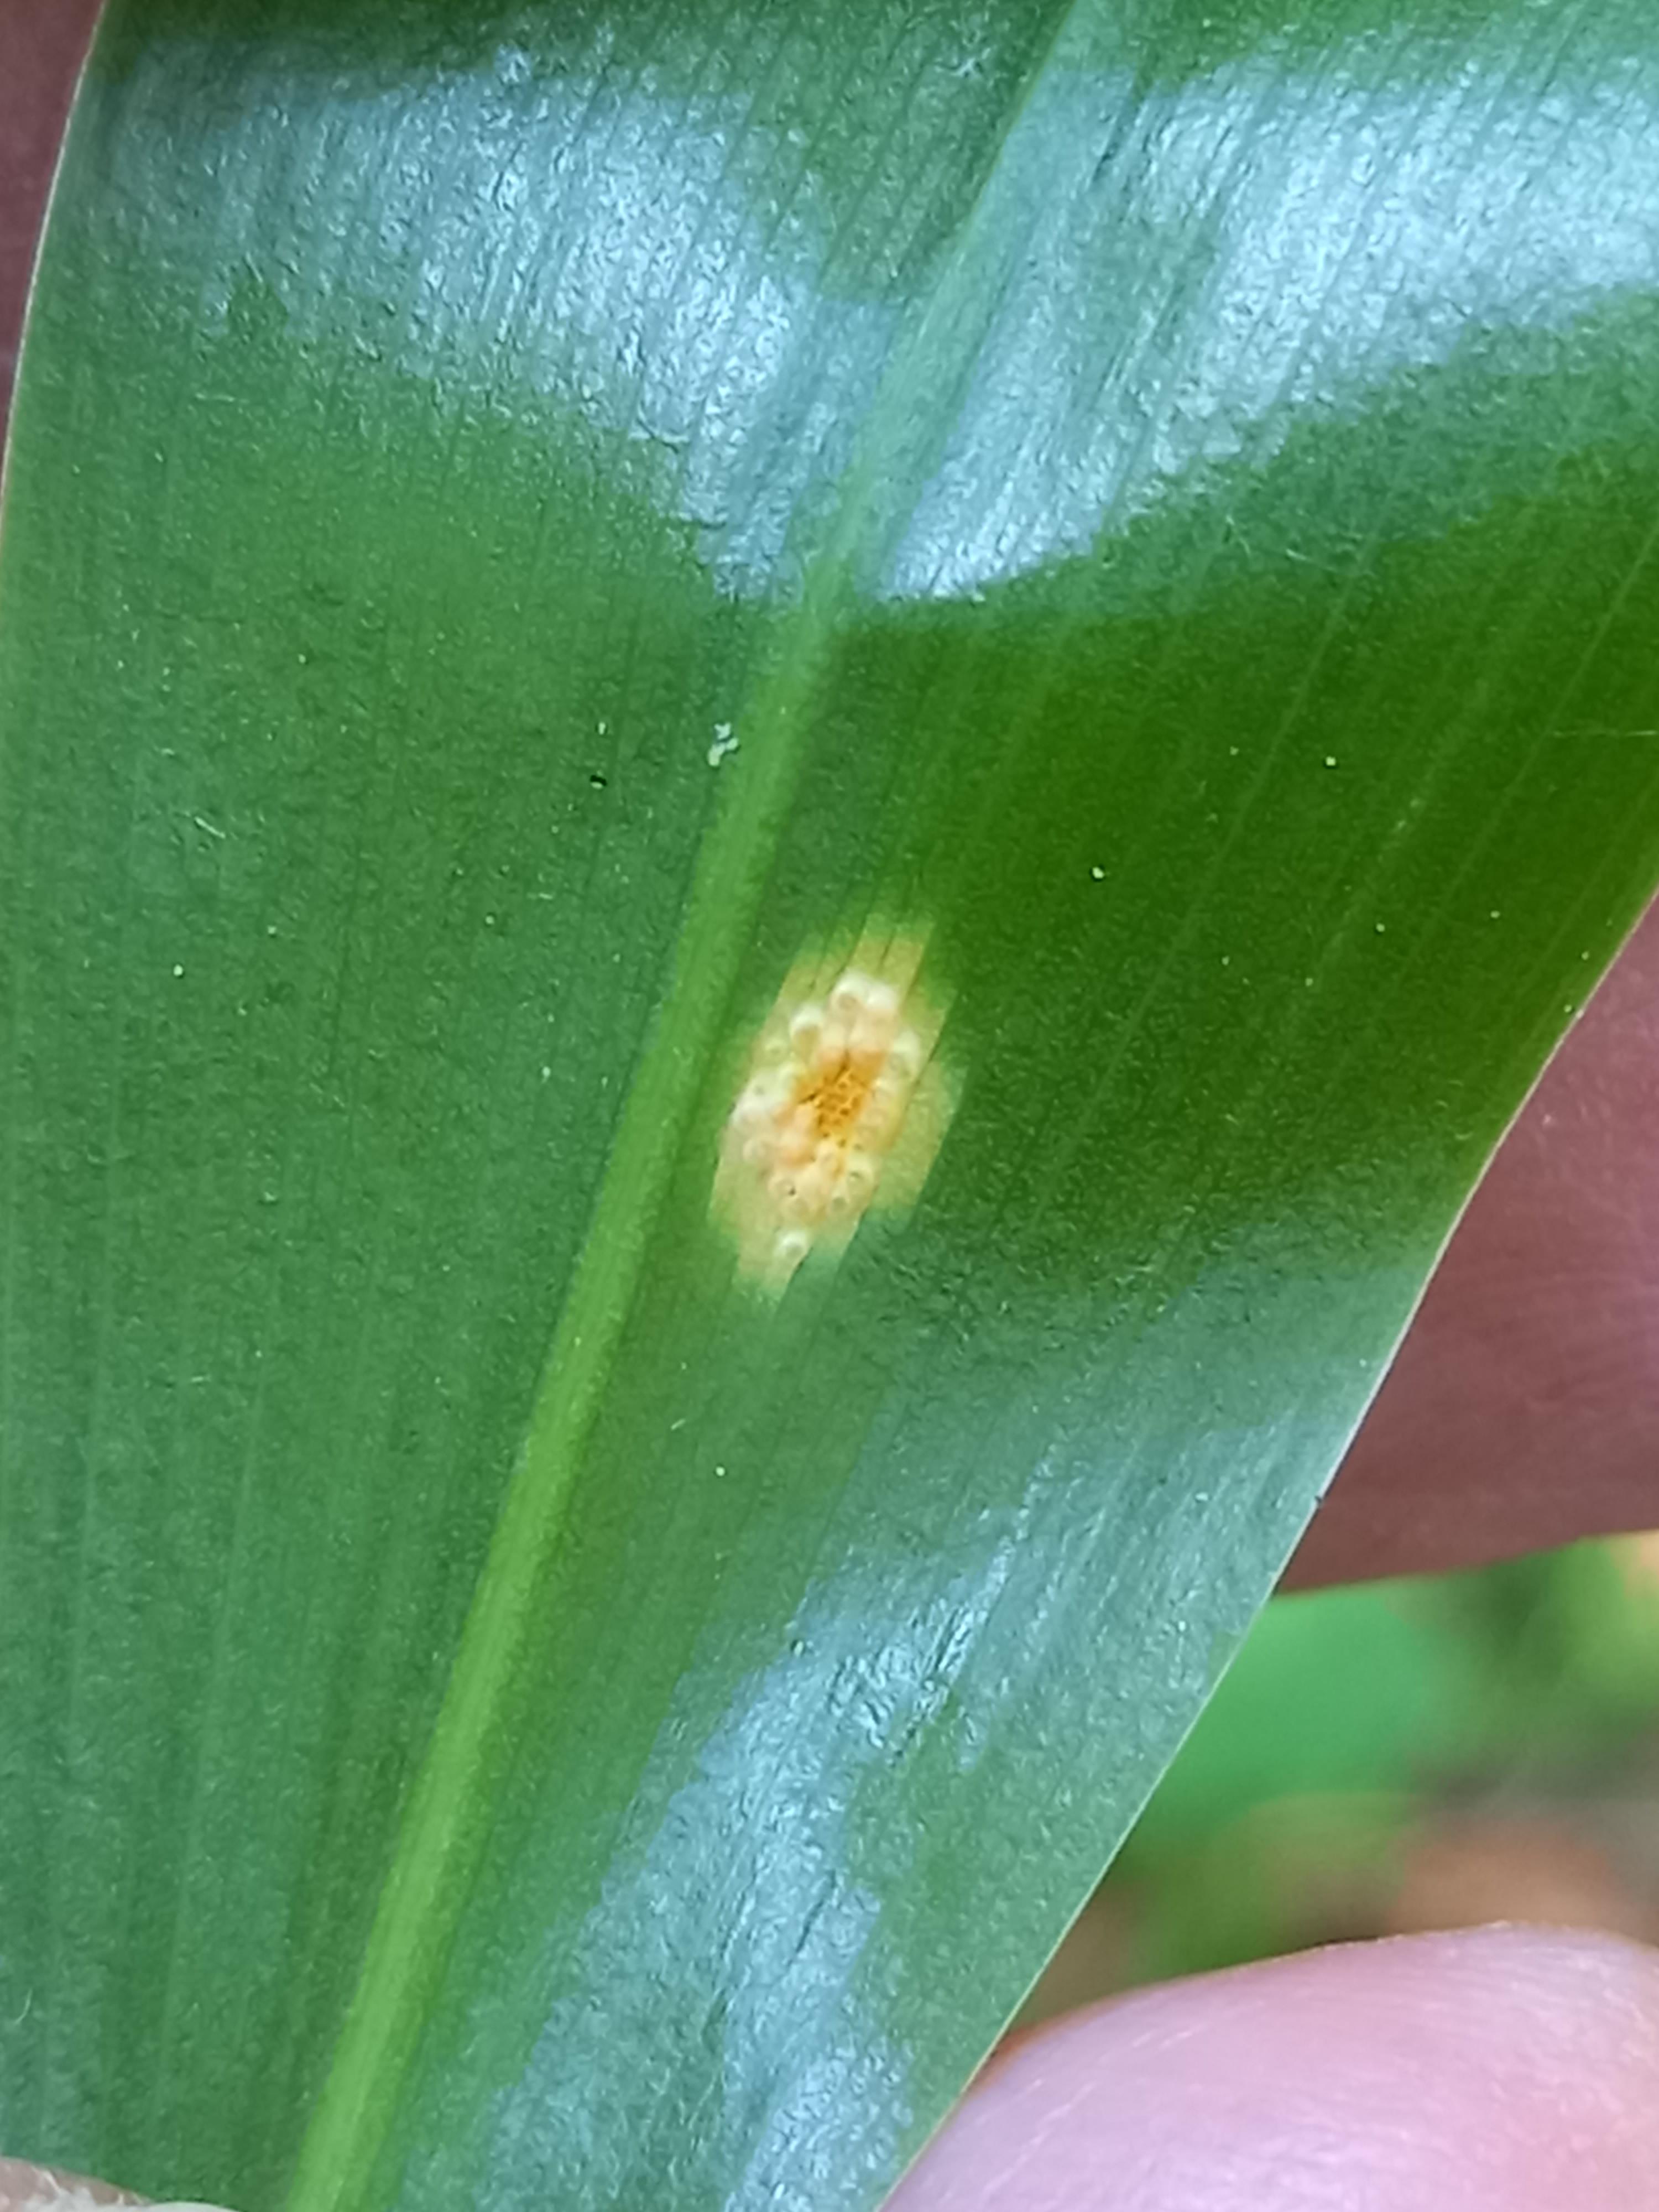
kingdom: Fungi
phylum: Basidiomycota
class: Pucciniomycetes
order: Pucciniales
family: Pucciniaceae
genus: Puccinia
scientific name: Puccinia sessilis
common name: Arum rust
